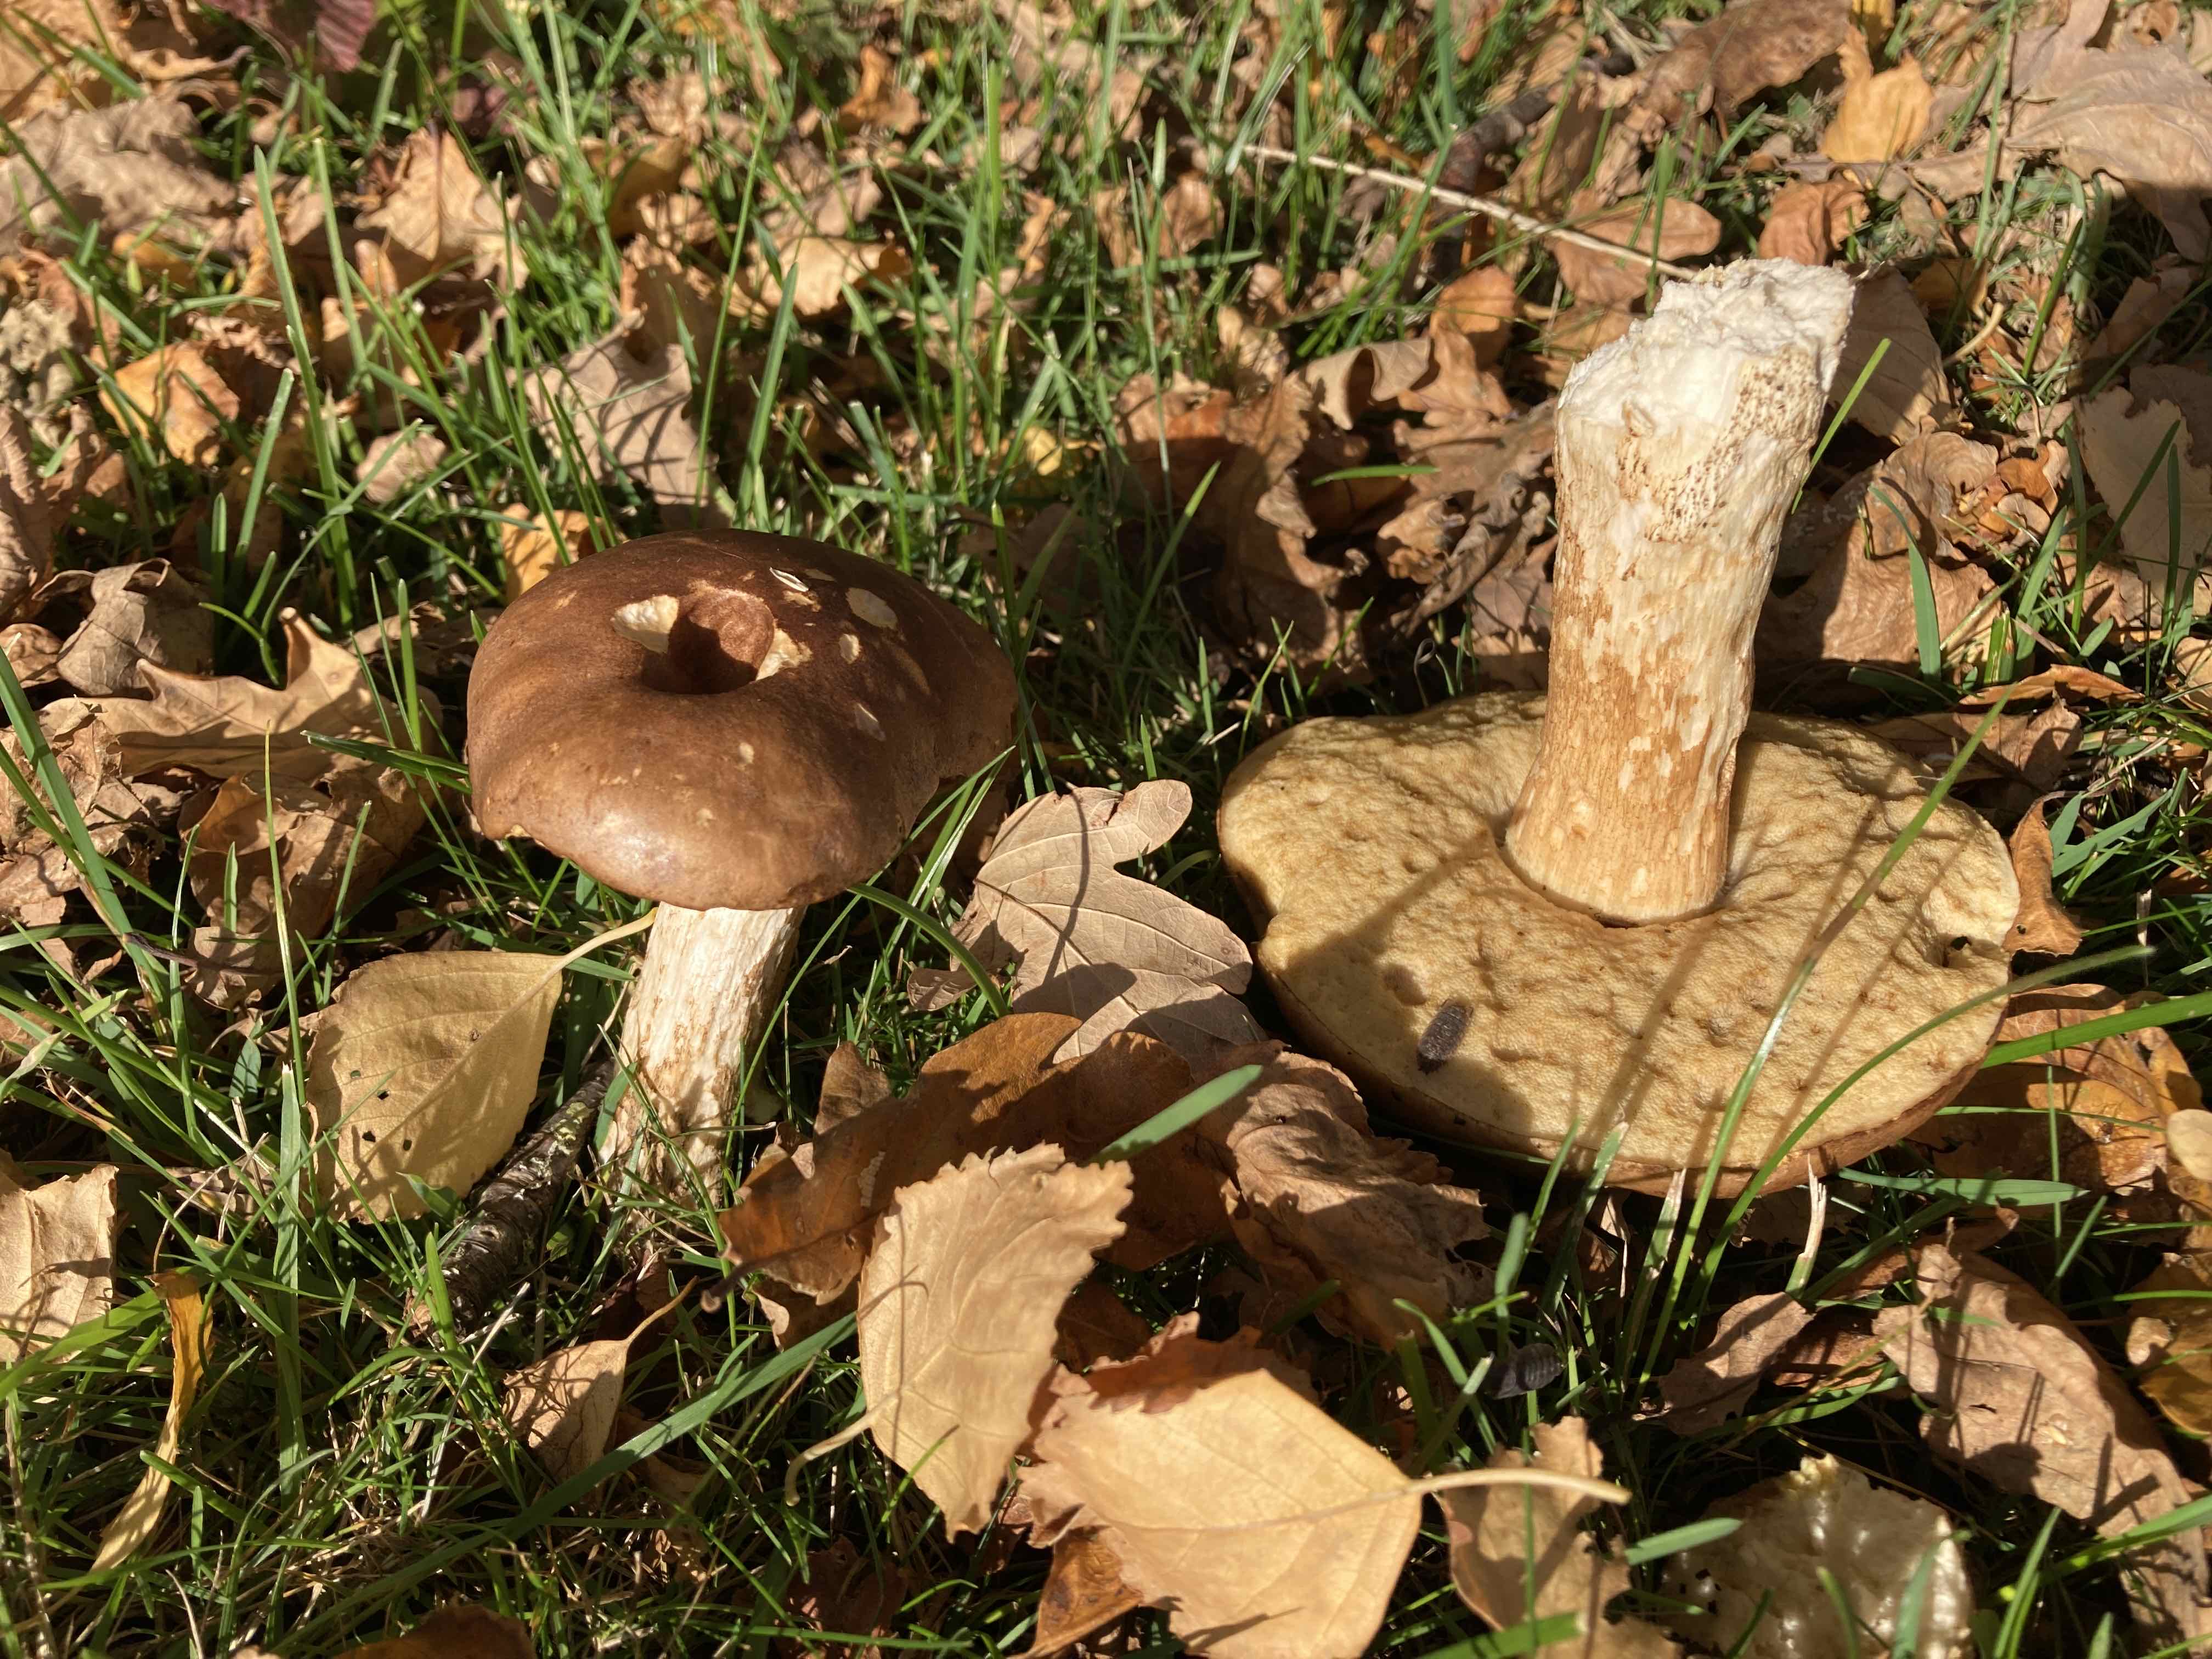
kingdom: Fungi
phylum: Basidiomycota
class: Agaricomycetes
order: Boletales
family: Boletaceae
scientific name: Boletaceae
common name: rørhatfamilien
